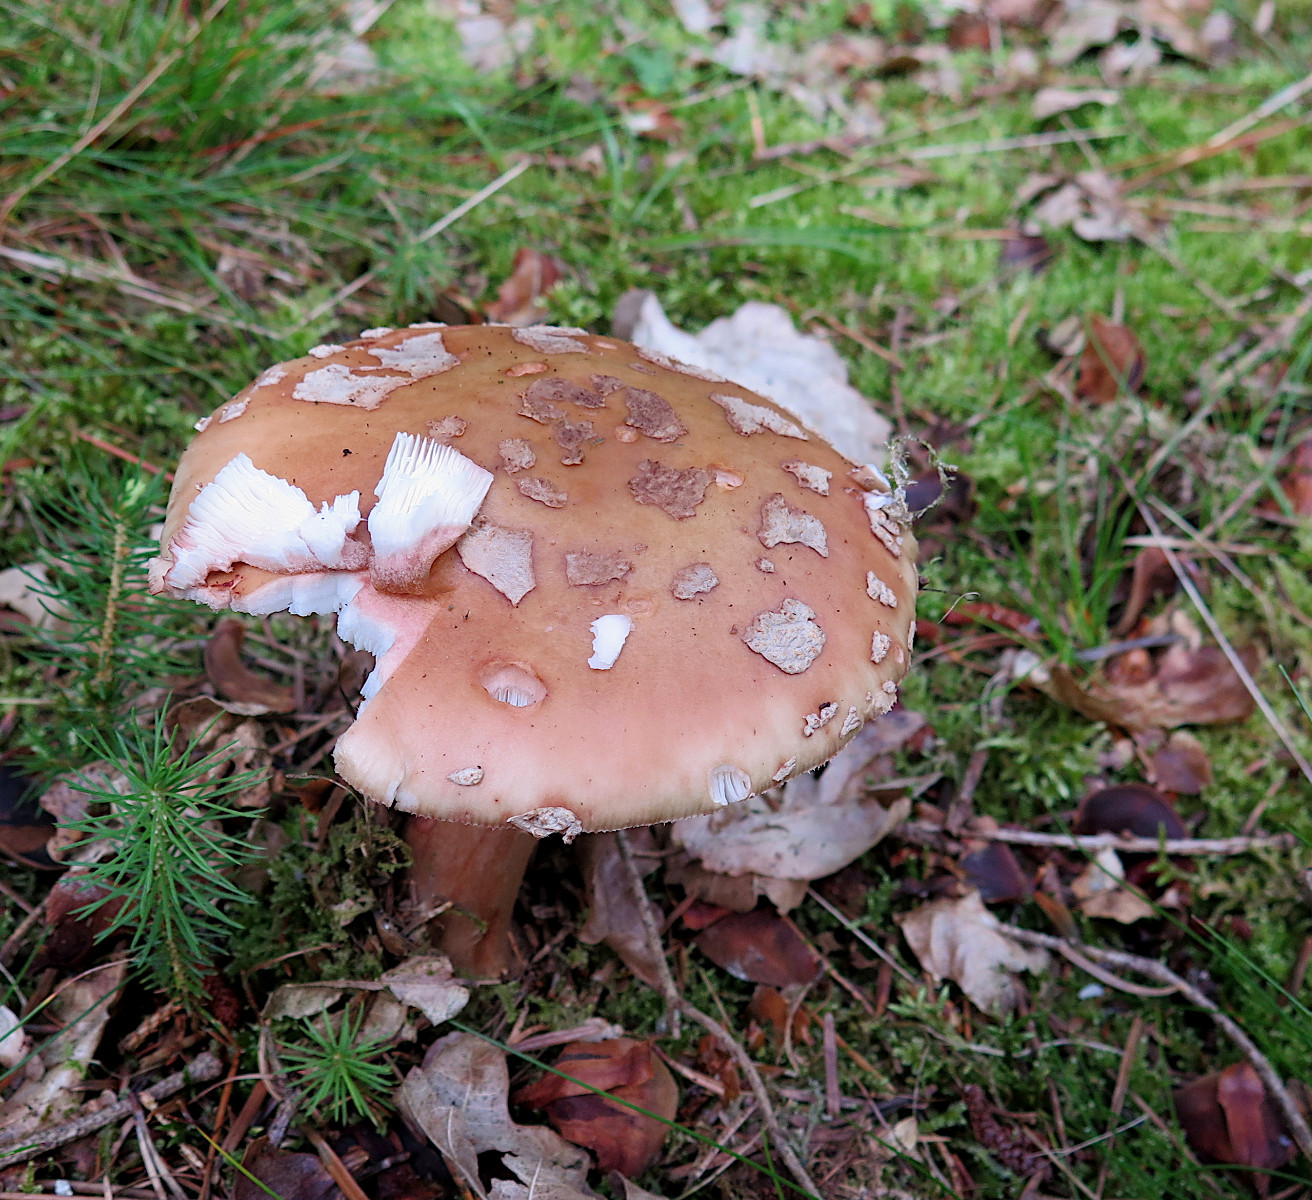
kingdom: Fungi
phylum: Basidiomycota
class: Agaricomycetes
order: Agaricales
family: Amanitaceae
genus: Amanita
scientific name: Amanita rubescens
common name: rødmende fluesvamp
